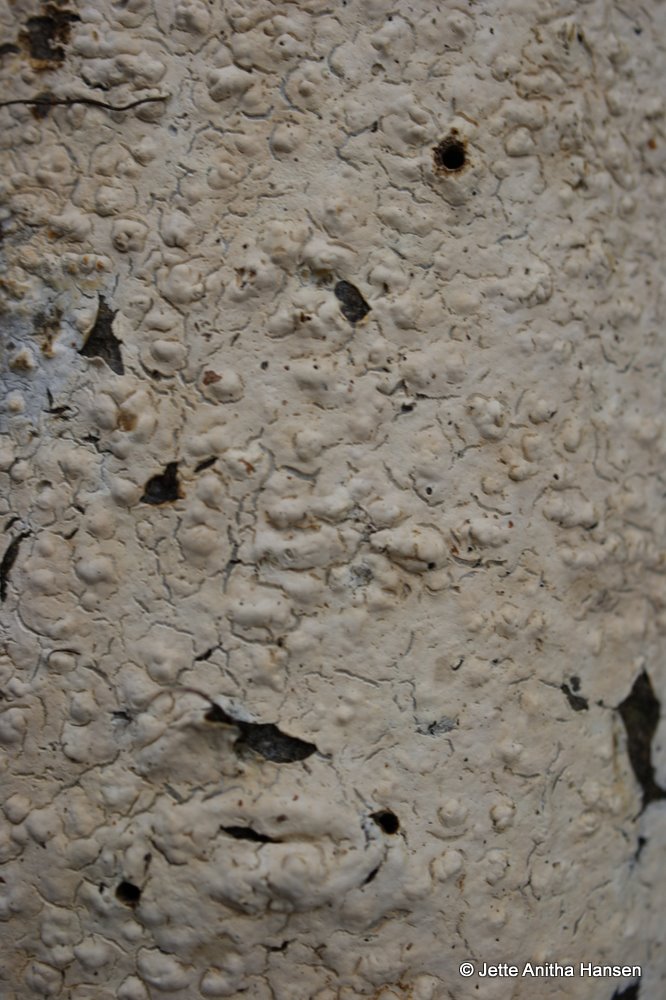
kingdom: Fungi
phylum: Basidiomycota
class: Agaricomycetes
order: Agaricales
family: Physalacriaceae
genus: Cylindrobasidium
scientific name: Cylindrobasidium evolvens
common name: sprækkehinde
